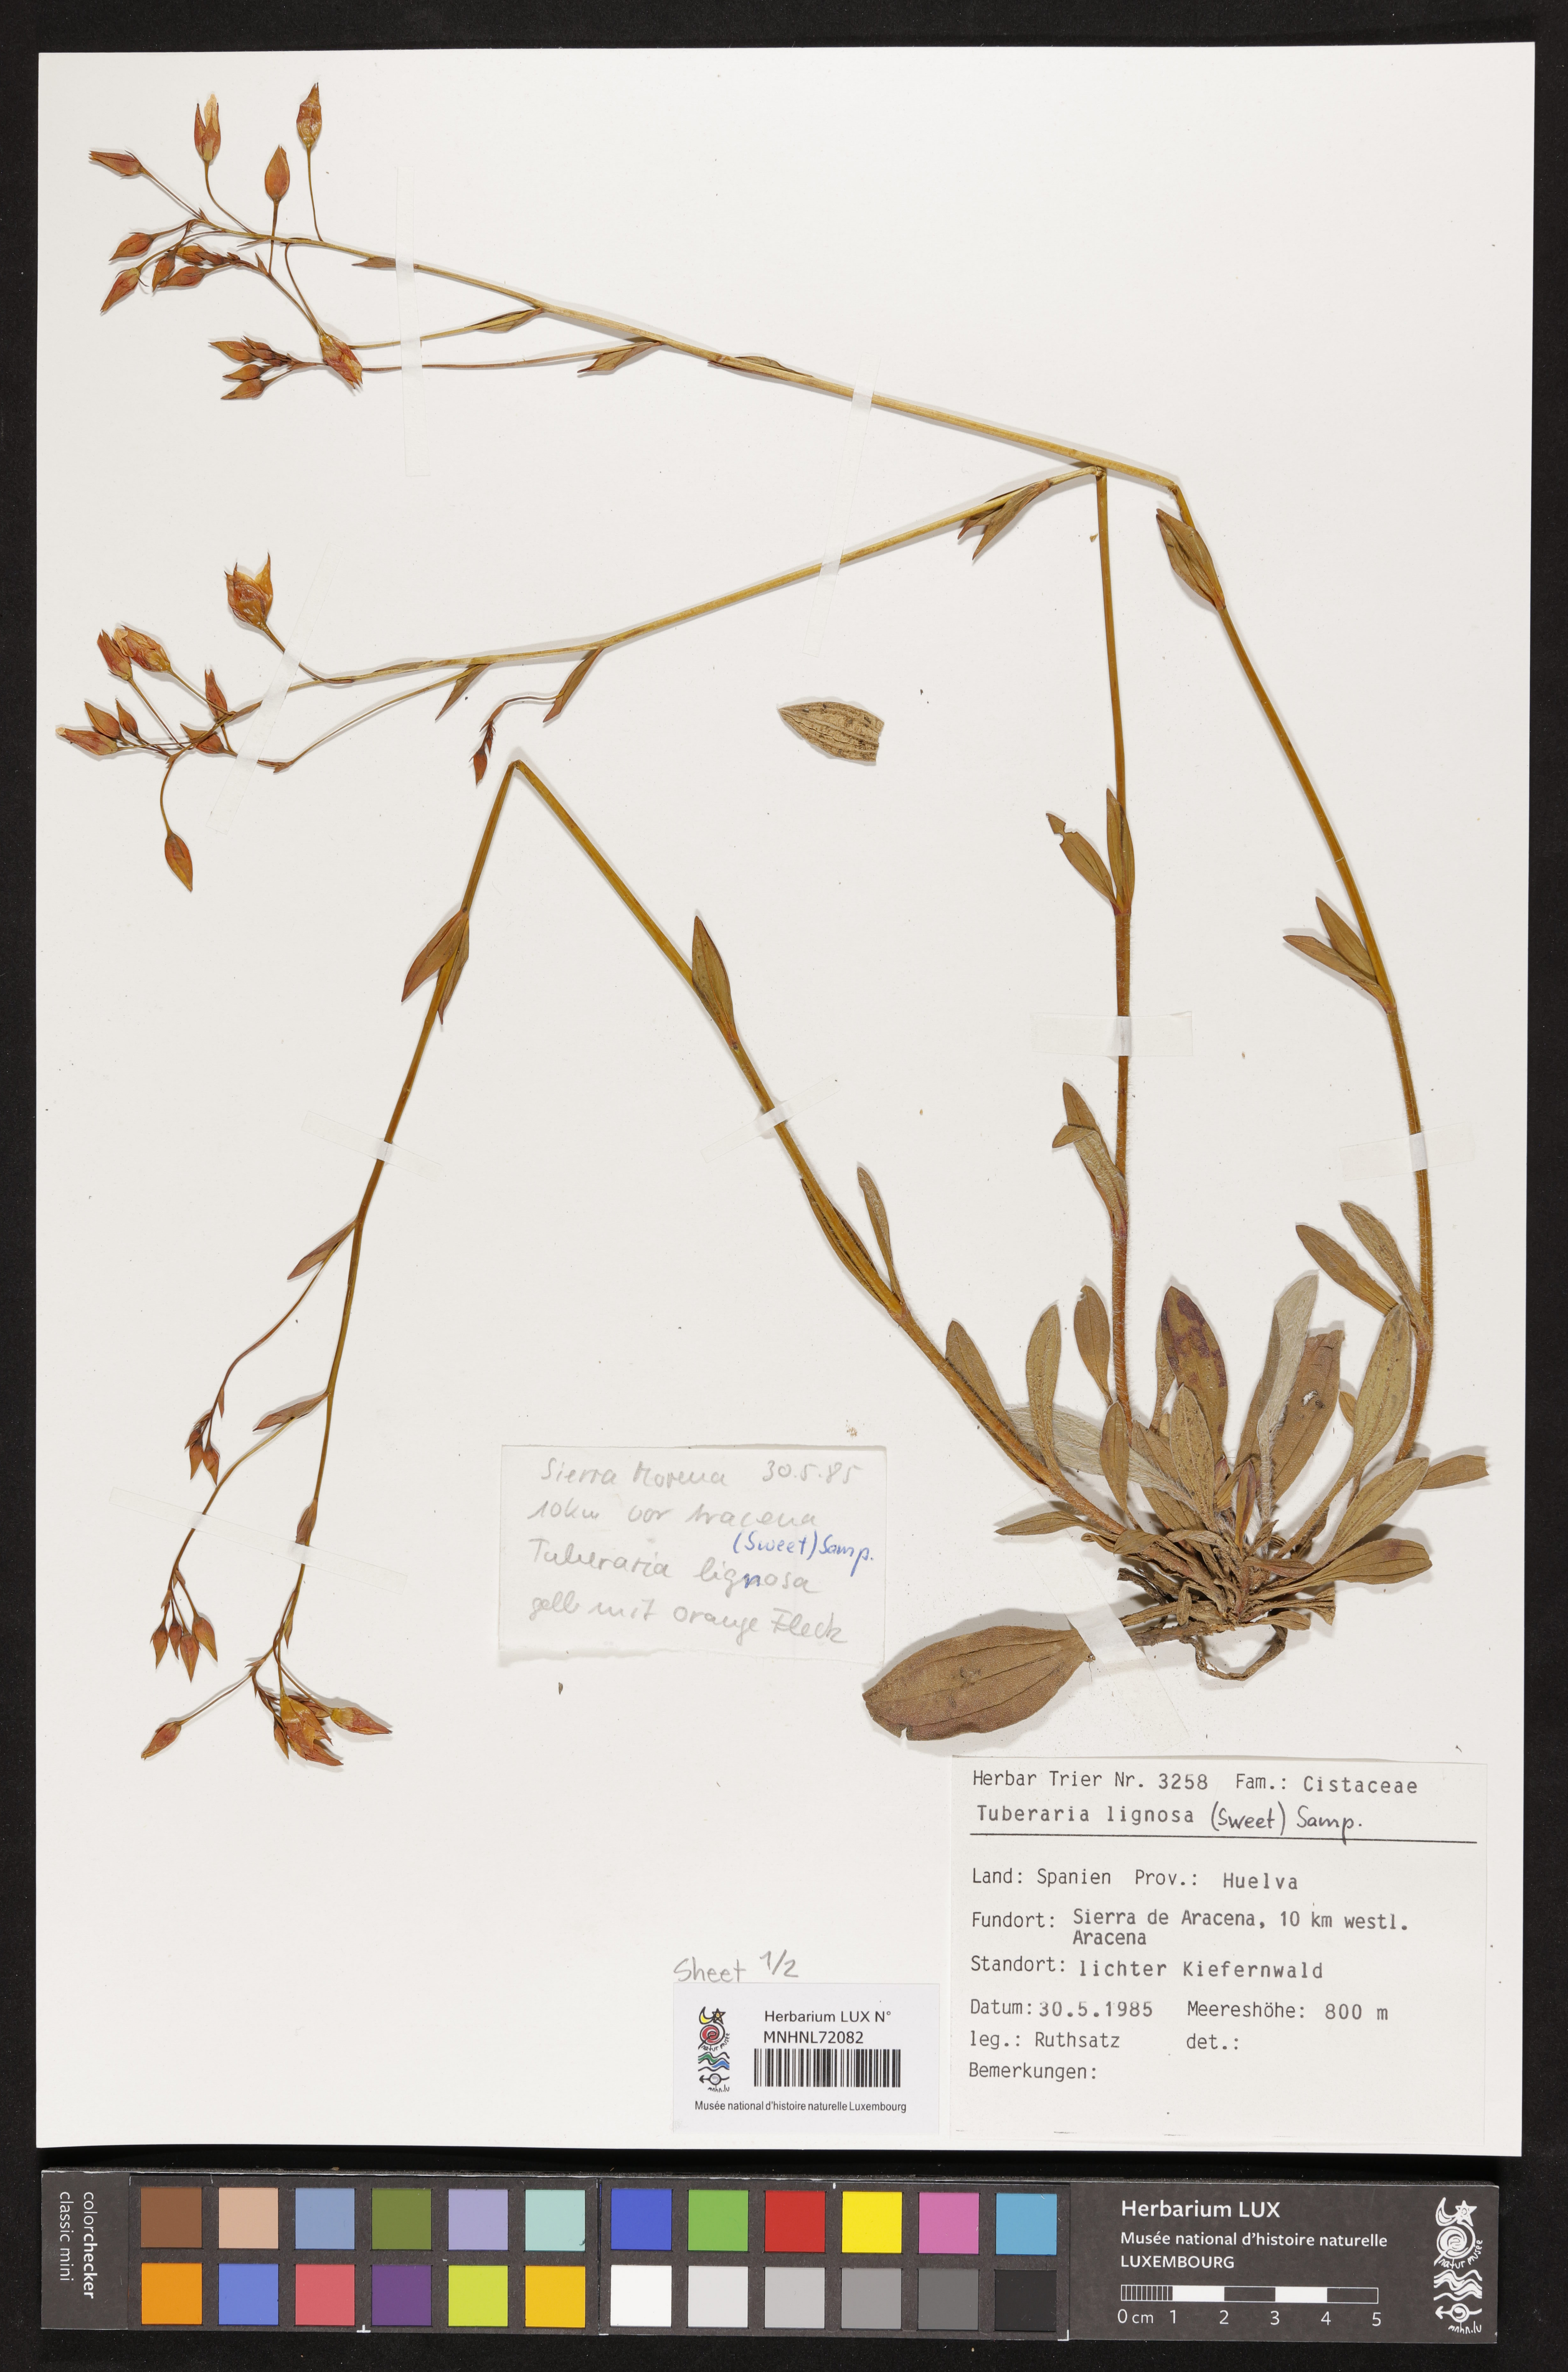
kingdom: Plantae
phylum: Tracheophyta
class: Magnoliopsida
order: Malvales
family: Cistaceae
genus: Tuberaria
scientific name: Tuberaria lignosa
